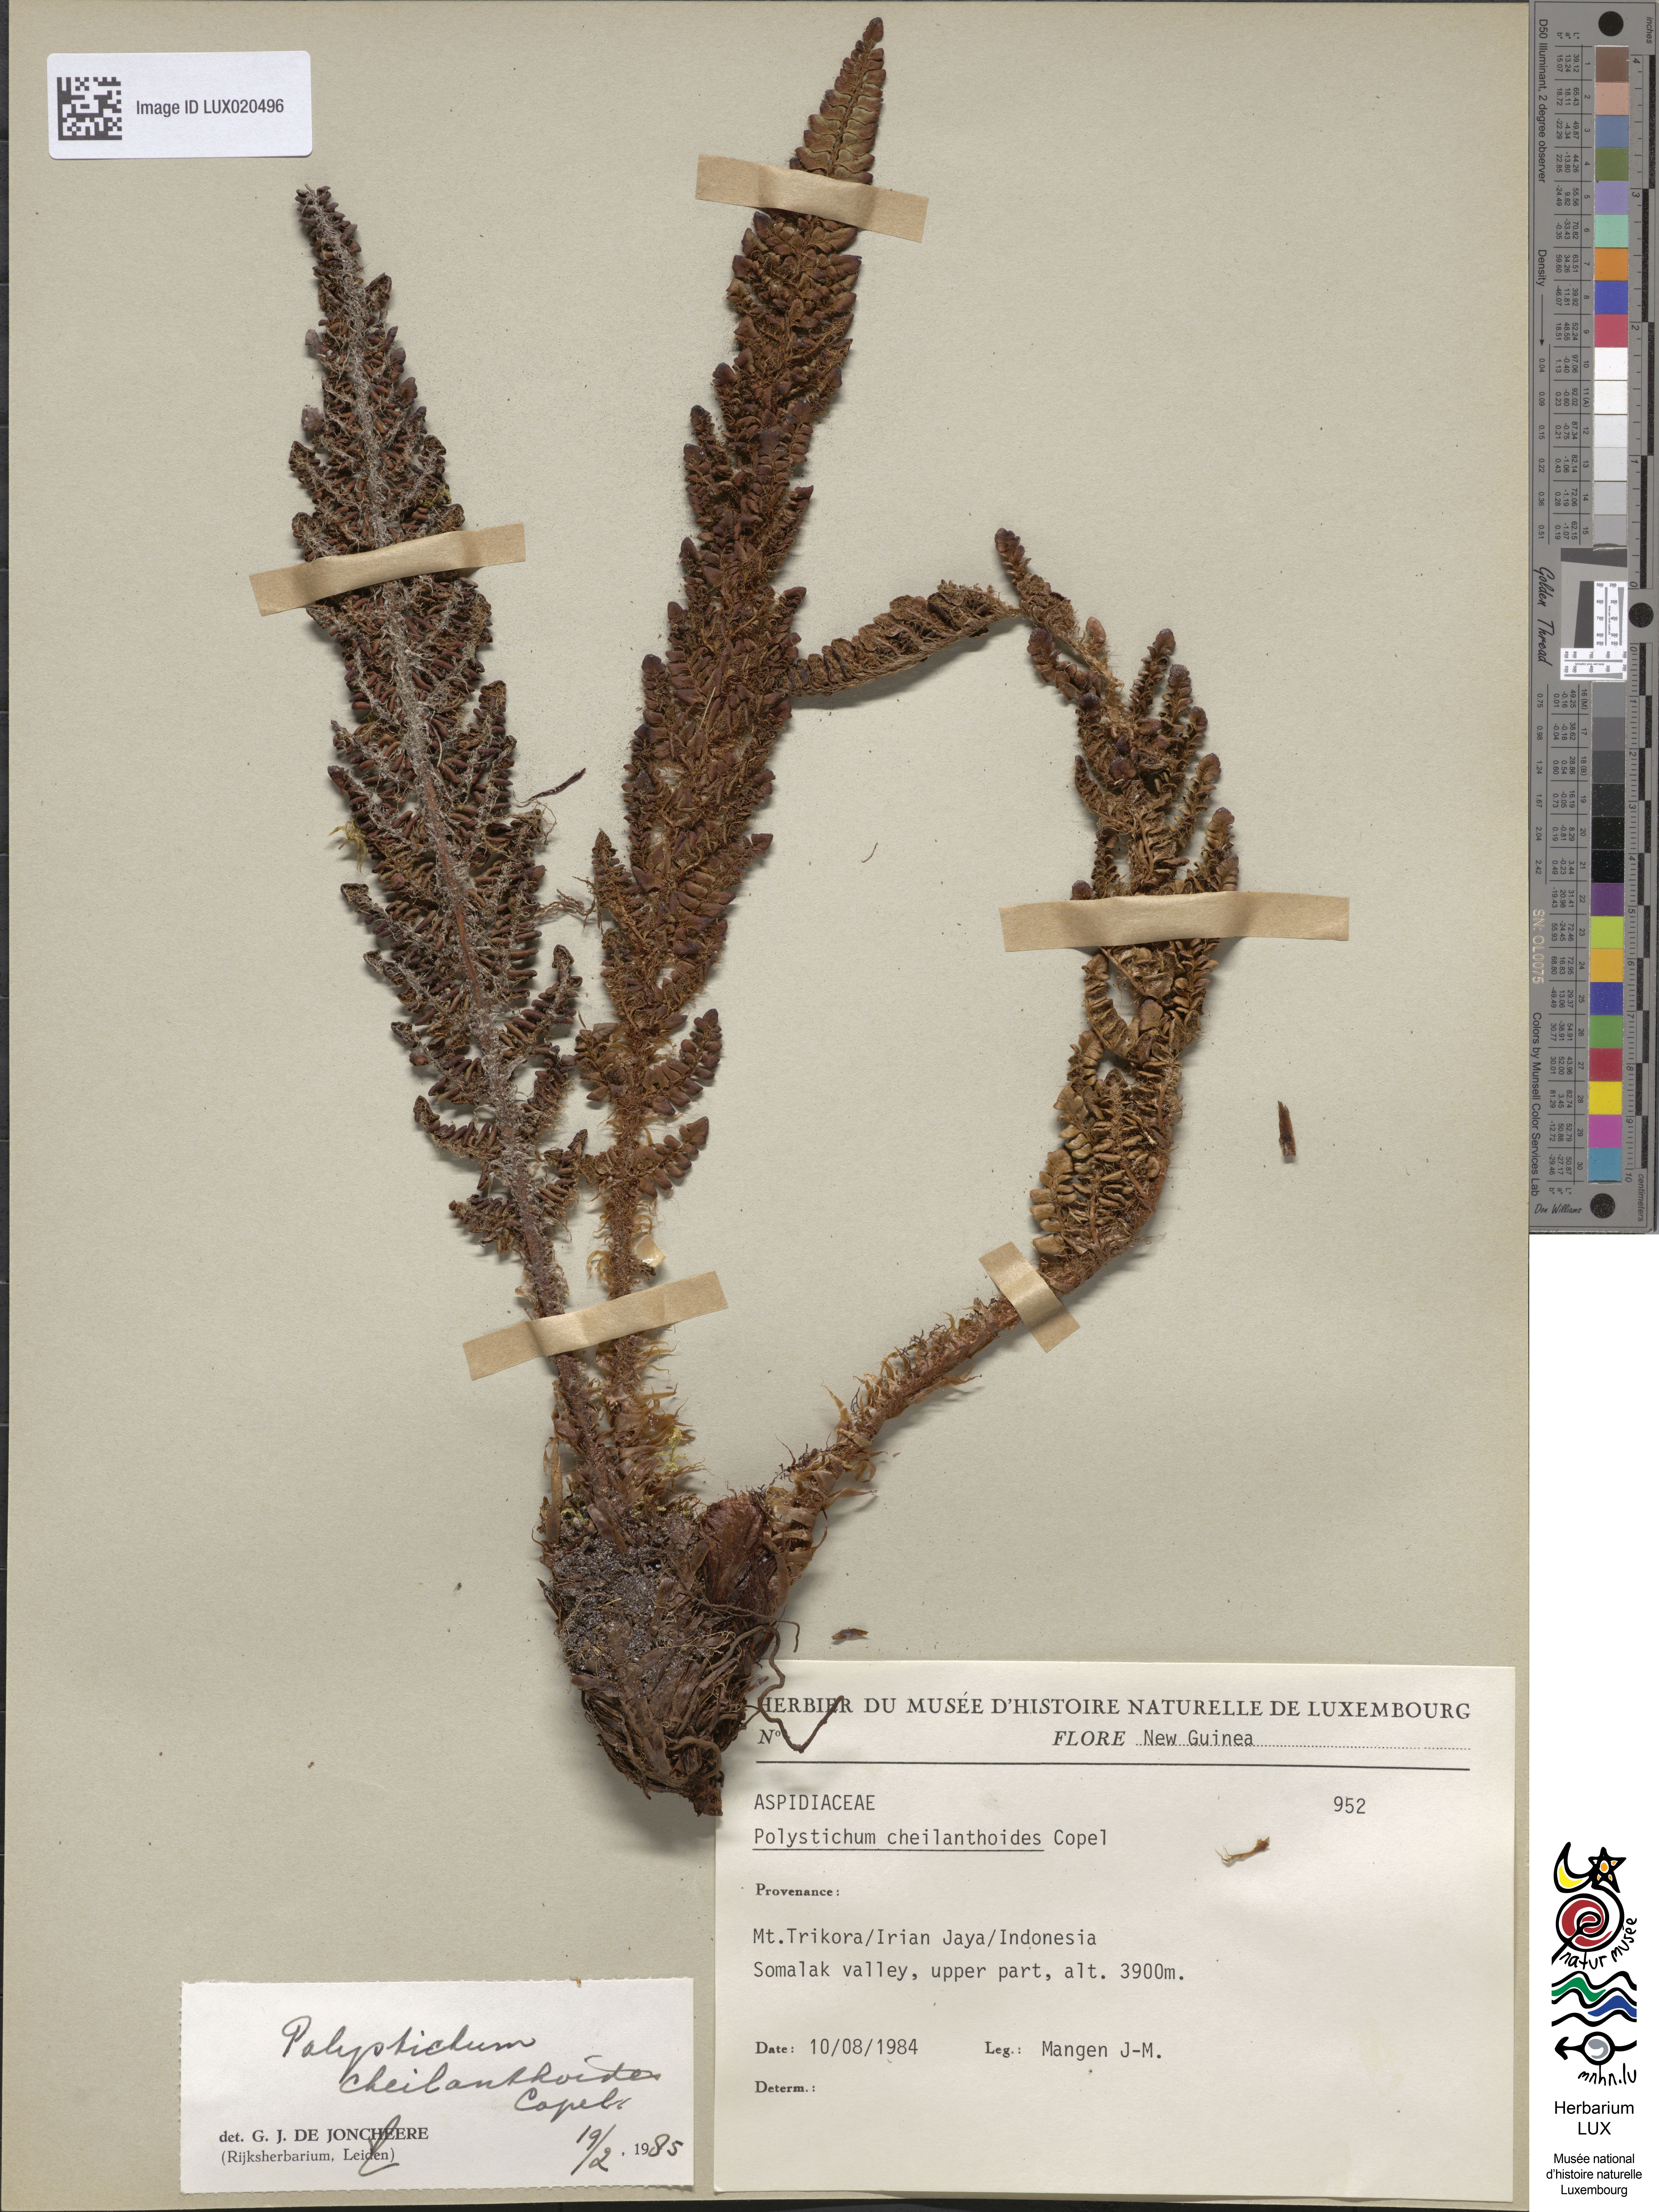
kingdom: Plantae
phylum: Tracheophyta
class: Polypodiopsida
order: Polypodiales
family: Dryopteridaceae
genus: Polystichum
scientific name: Polystichum cheilanthoides
